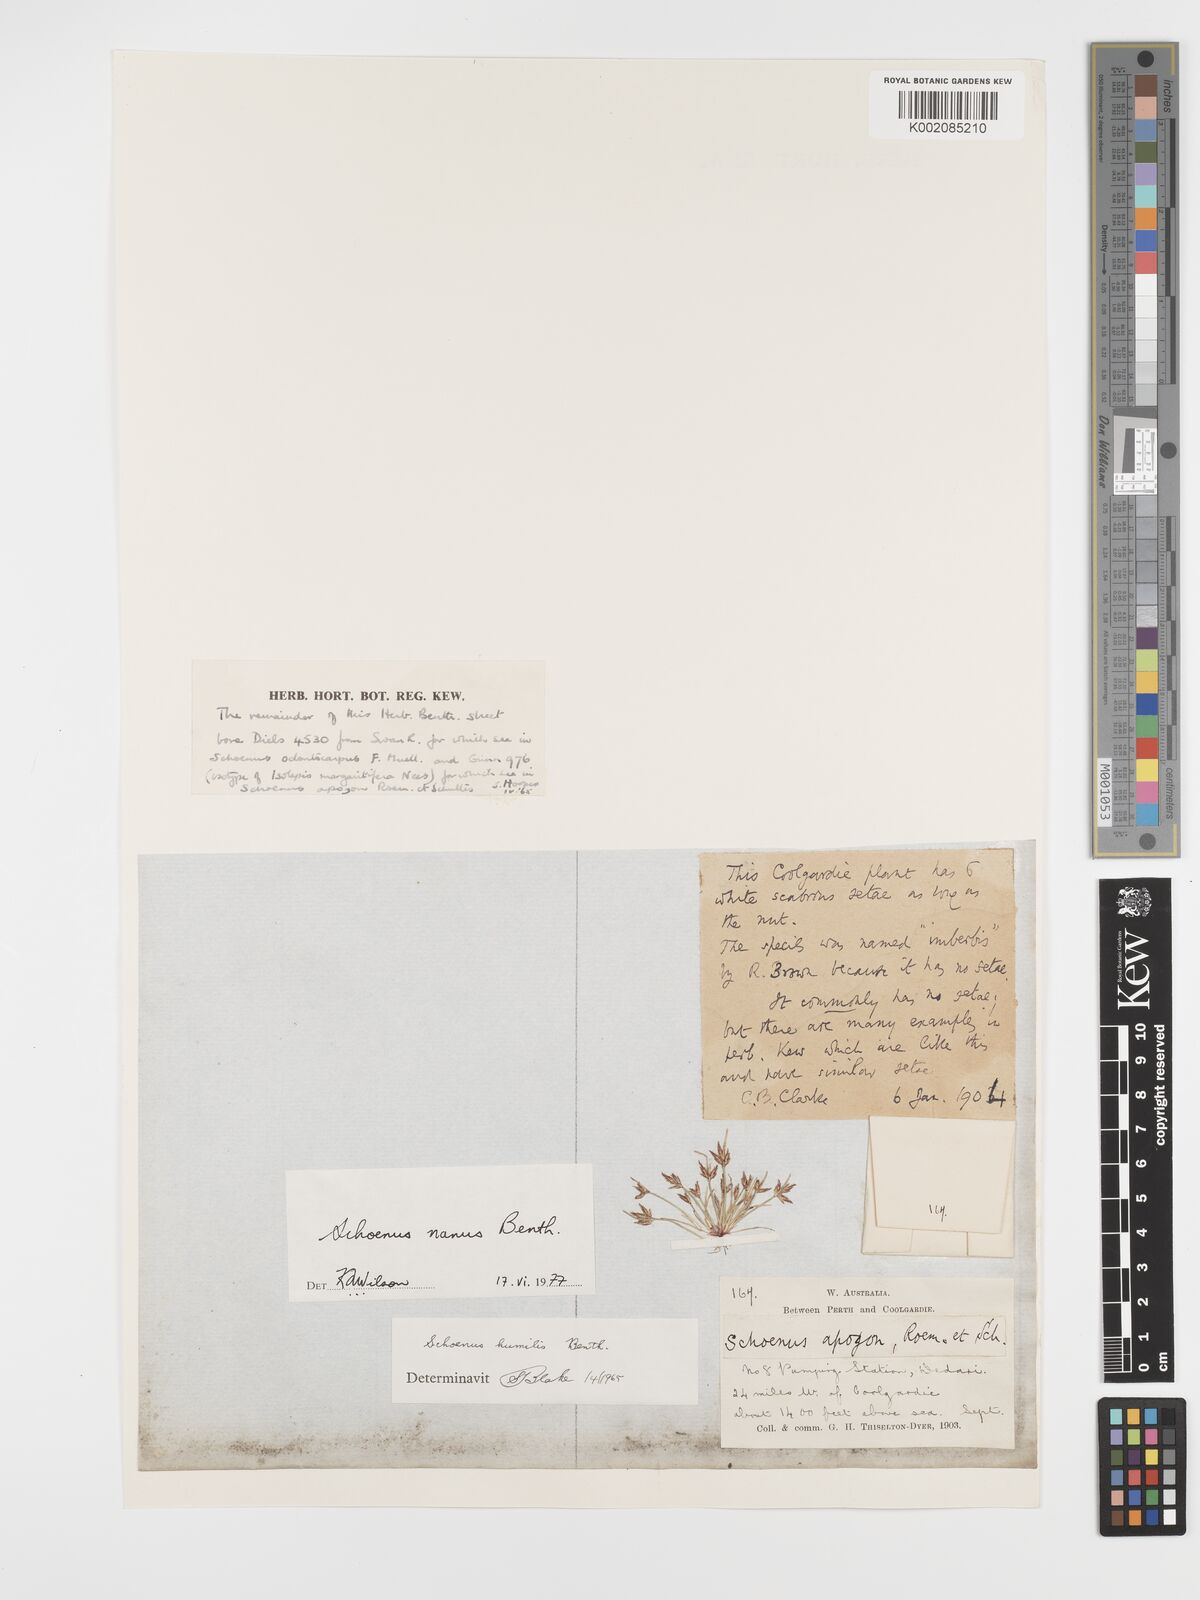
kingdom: Plantae
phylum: Tracheophyta
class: Liliopsida
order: Poales
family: Cyperaceae
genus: Schoenus
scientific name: Schoenus nanus
